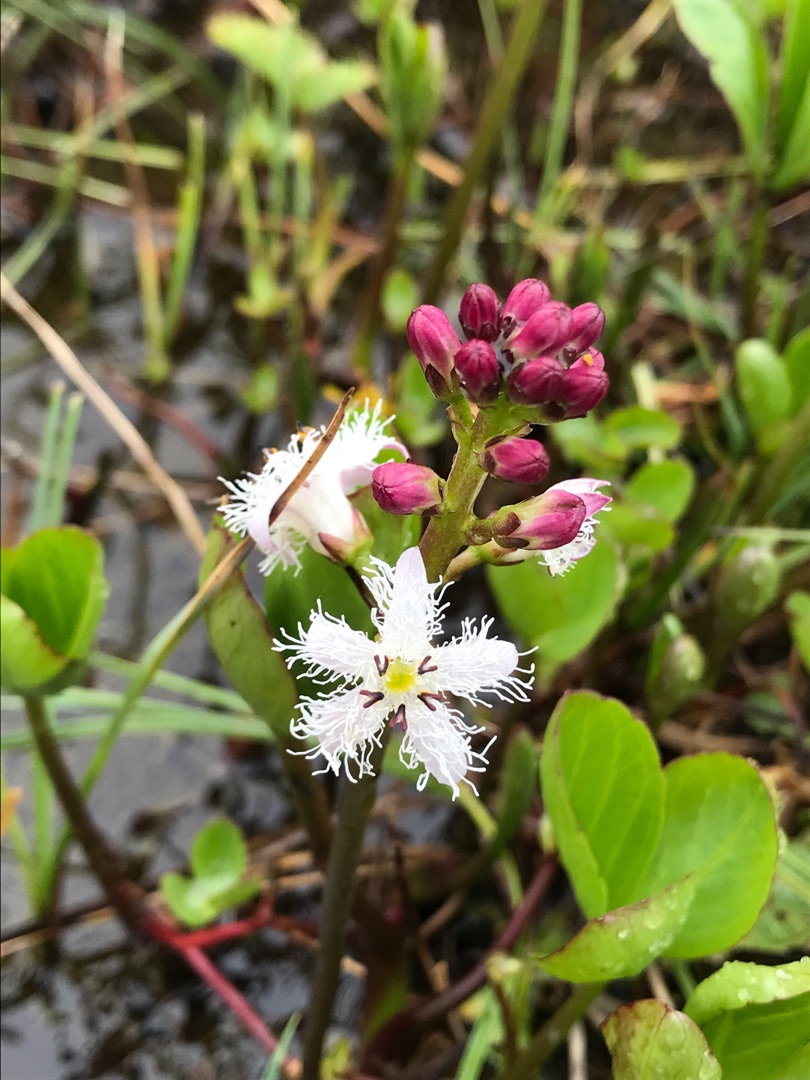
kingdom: Plantae
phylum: Tracheophyta
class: Magnoliopsida
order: Asterales
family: Menyanthaceae
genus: Menyanthes
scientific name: Menyanthes trifoliata
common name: Bukkeblad
